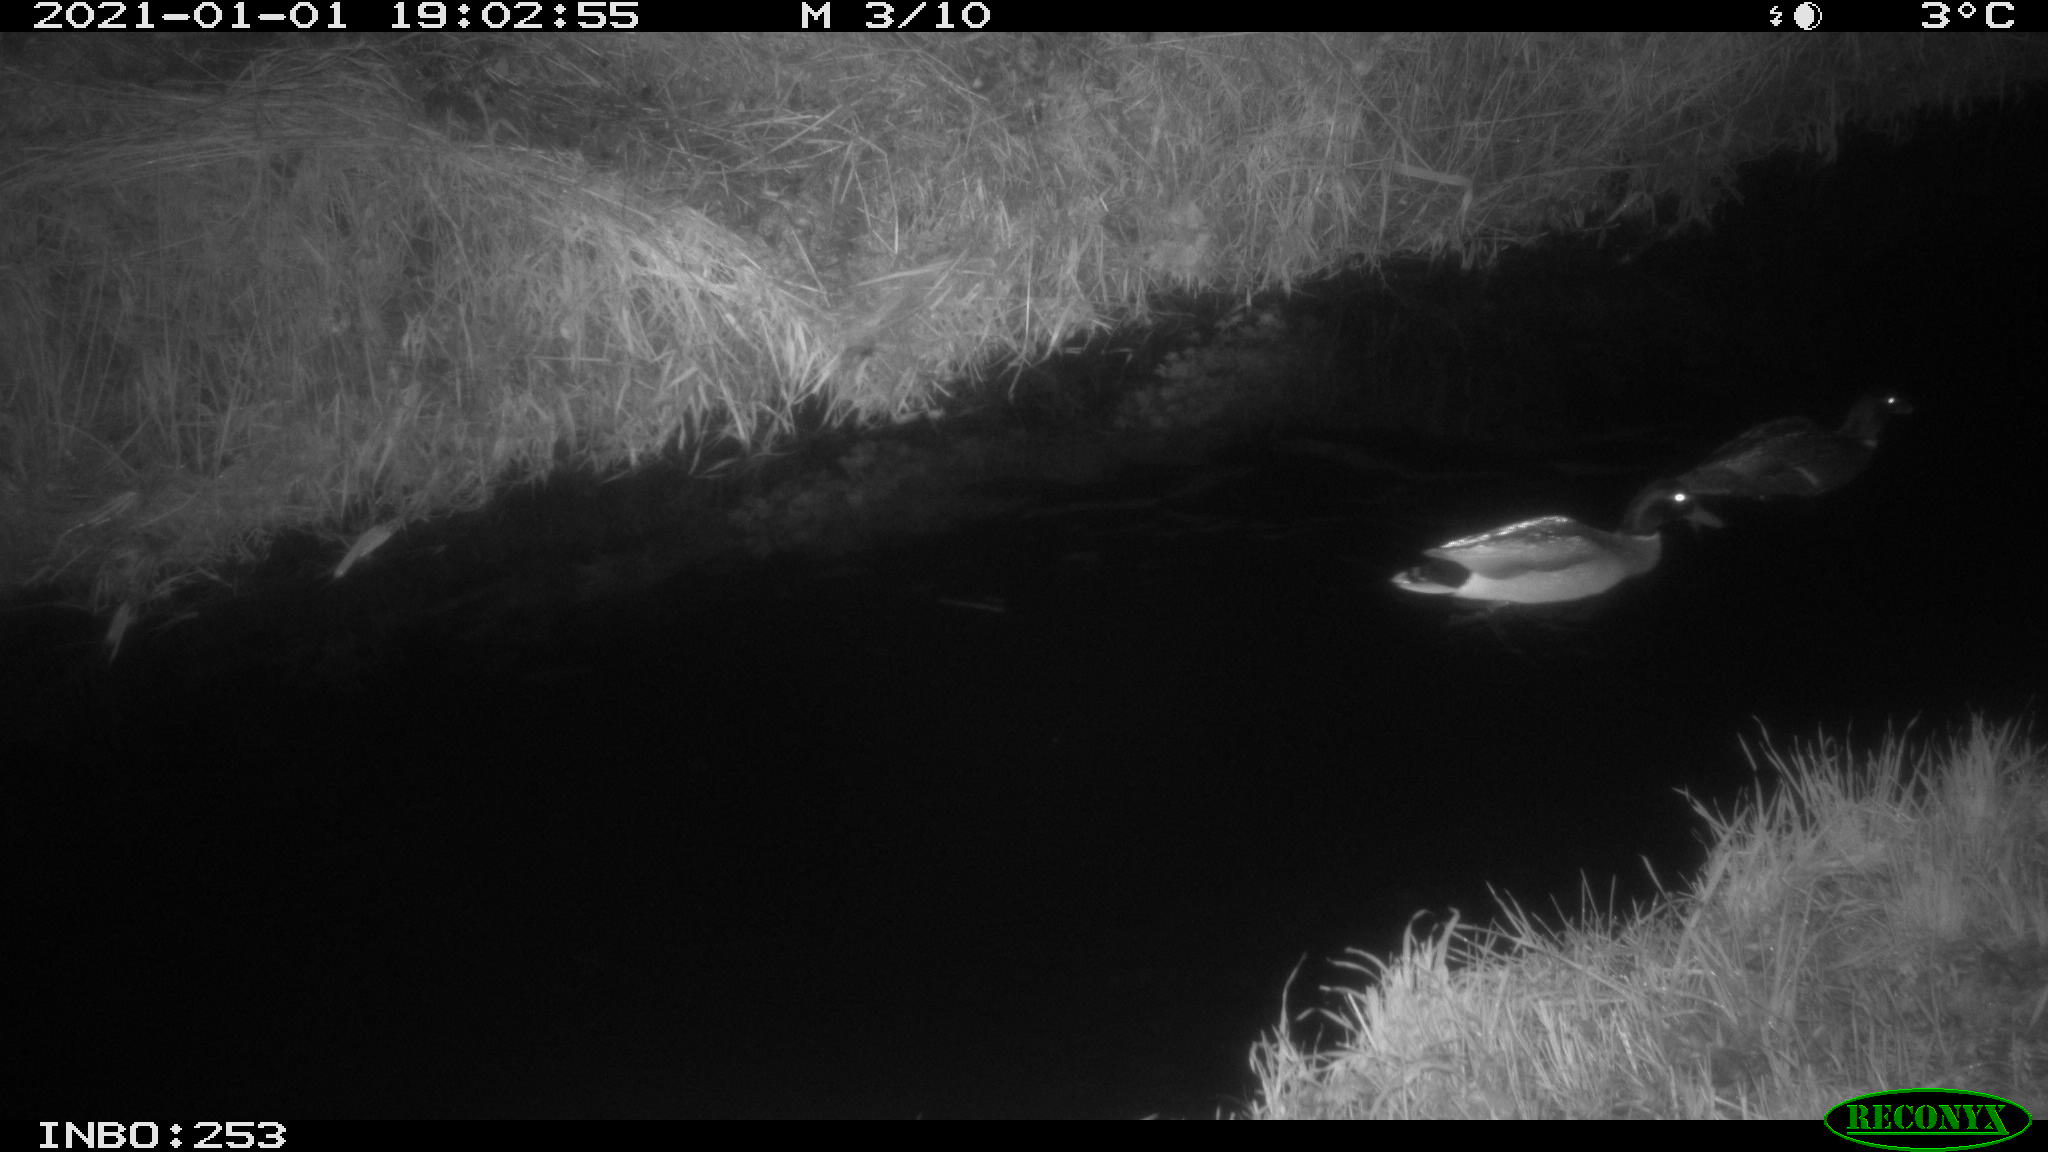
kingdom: Animalia
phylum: Chordata
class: Aves
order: Anseriformes
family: Anatidae
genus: Anas
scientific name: Anas platyrhynchos
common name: Mallard
